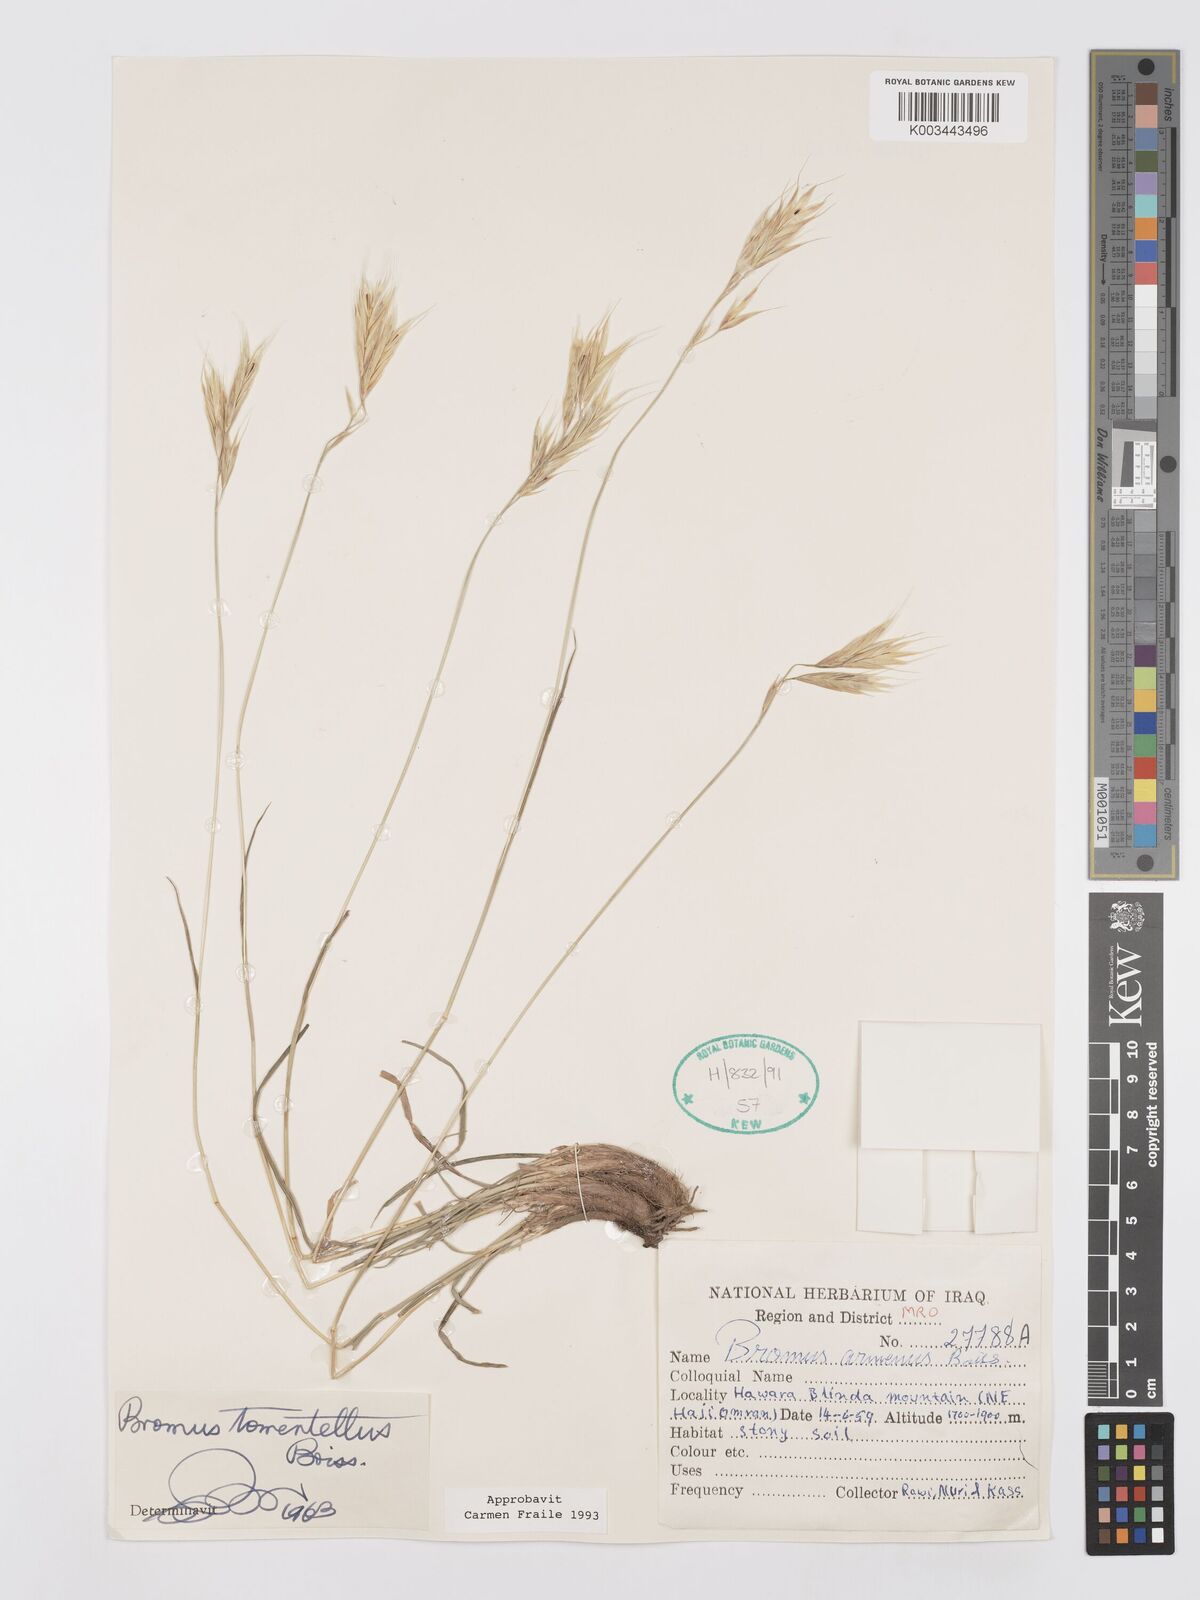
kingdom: Plantae
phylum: Tracheophyta
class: Liliopsida
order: Poales
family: Poaceae
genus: Bromus
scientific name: Bromus tomentellus
